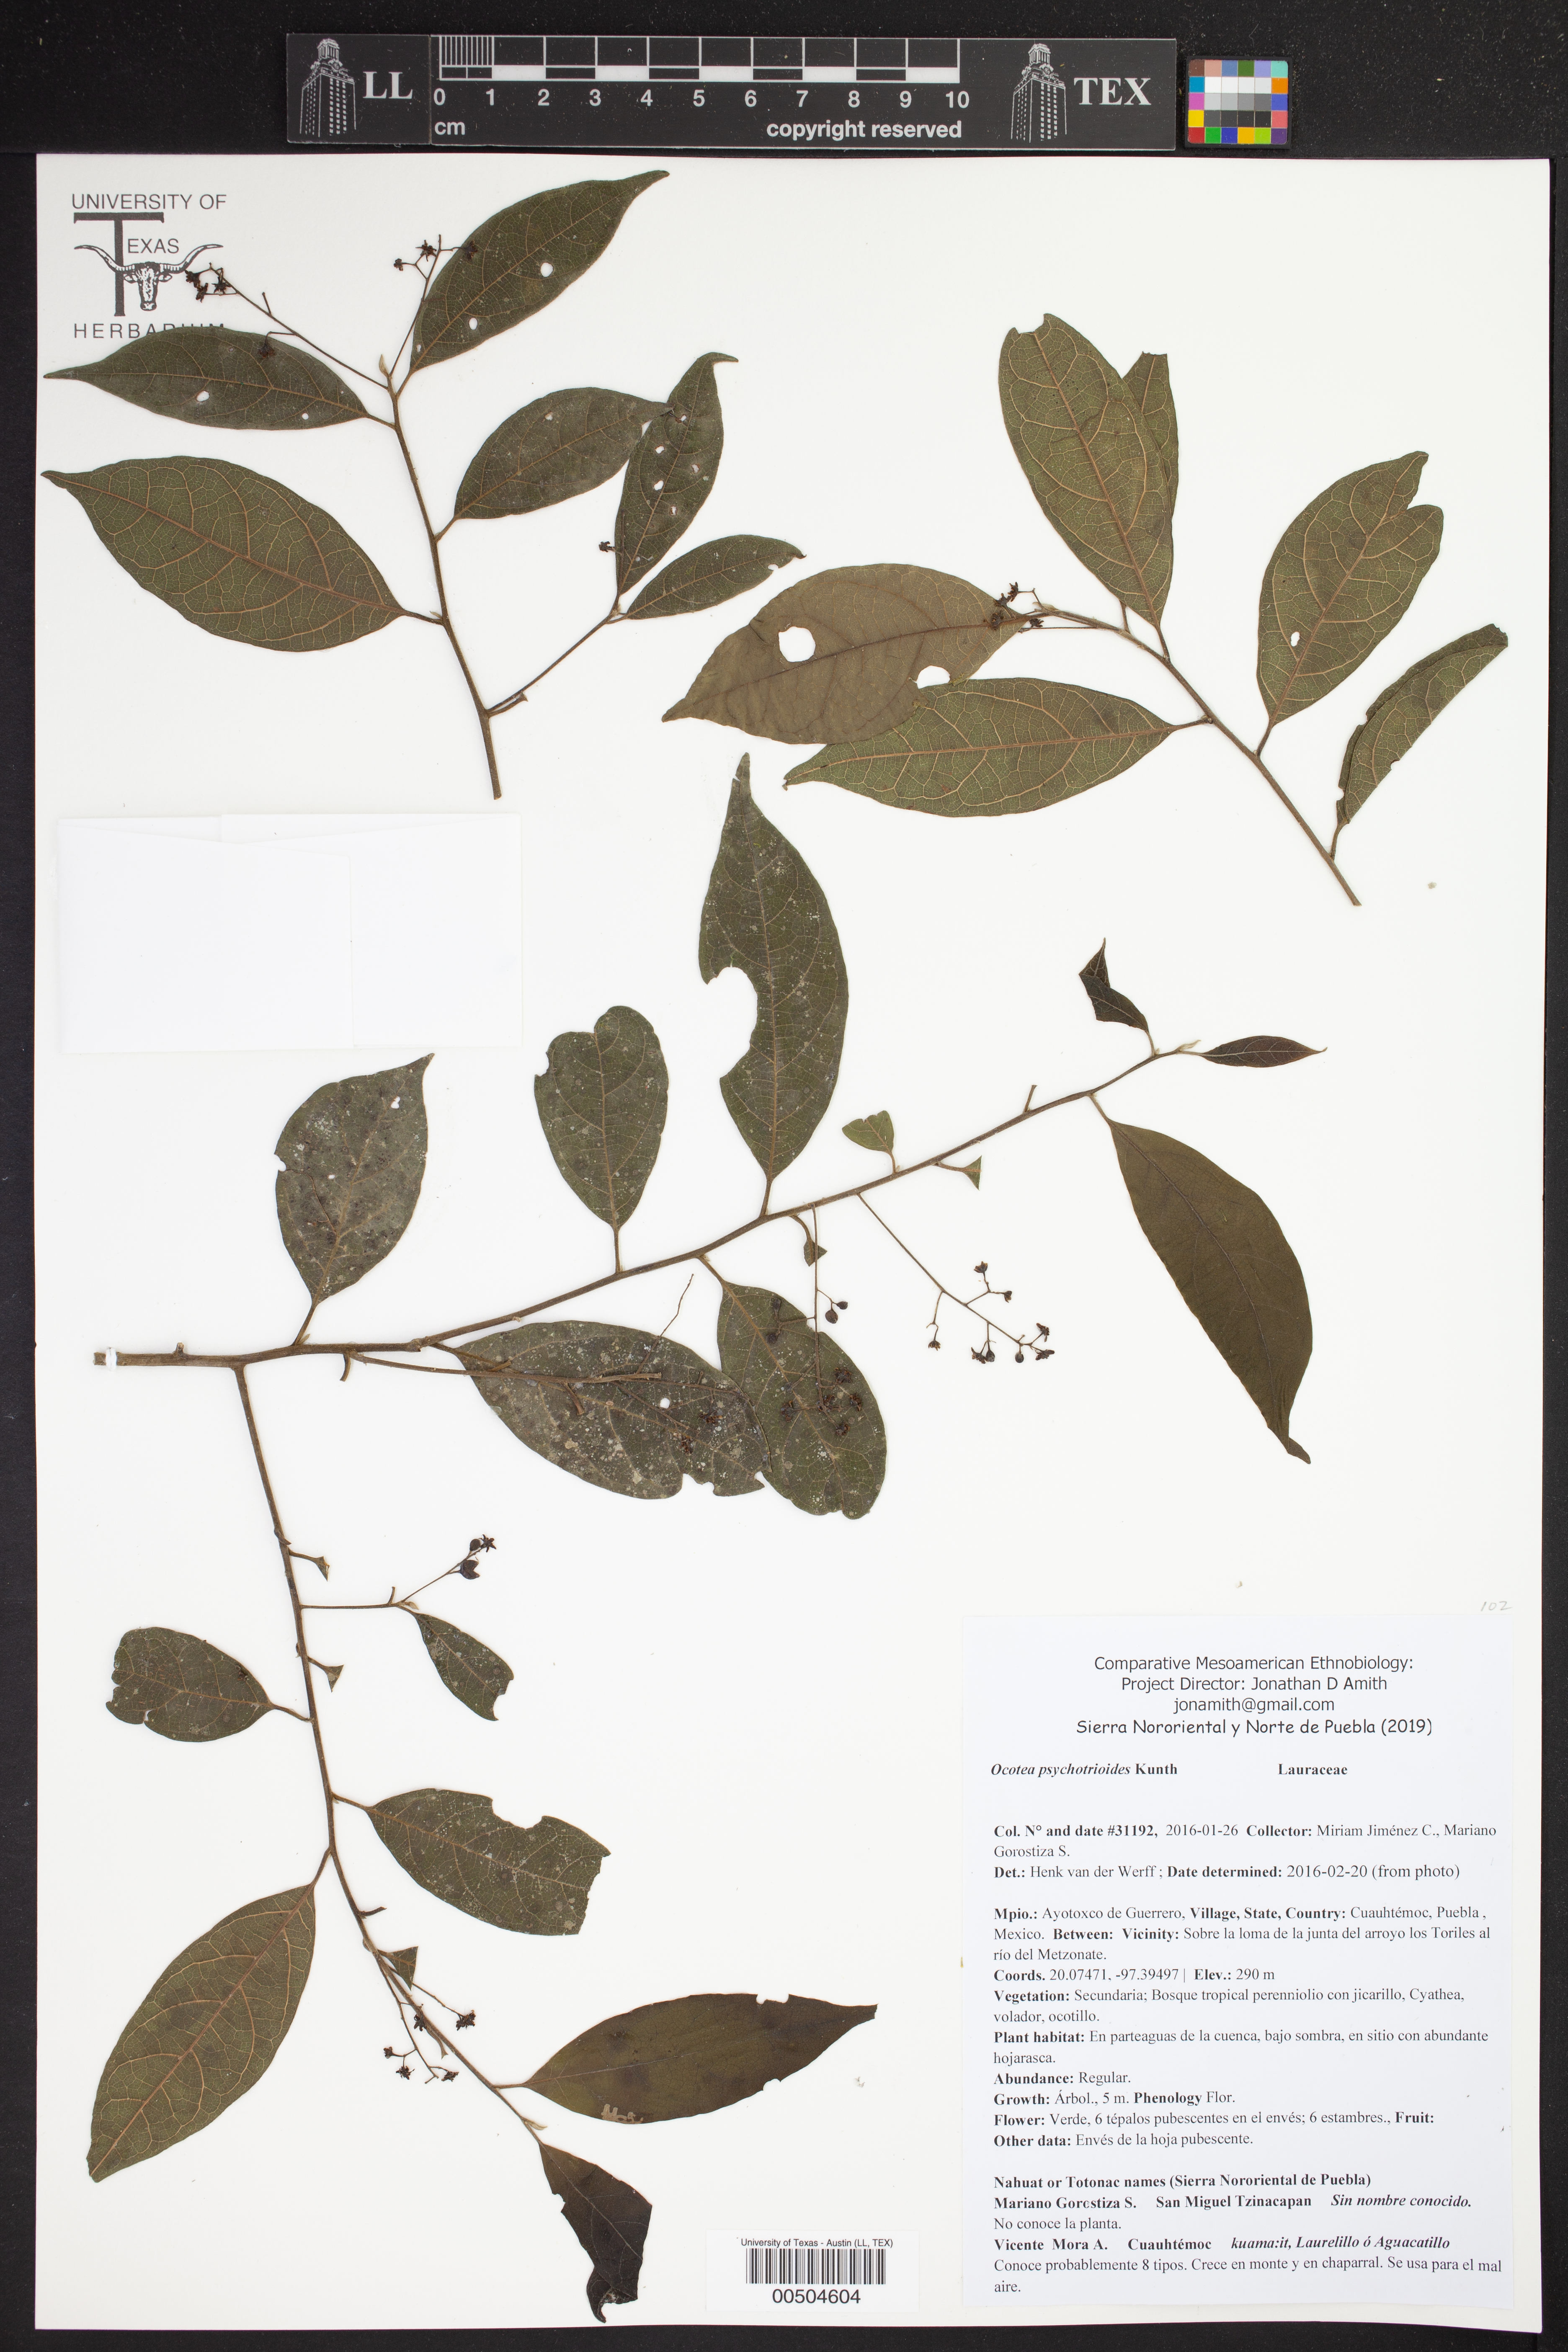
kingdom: Plantae
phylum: Tracheophyta
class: Magnoliopsida
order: Laurales
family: Lauraceae
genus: Ocotea
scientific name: Ocotea psychotrioides
